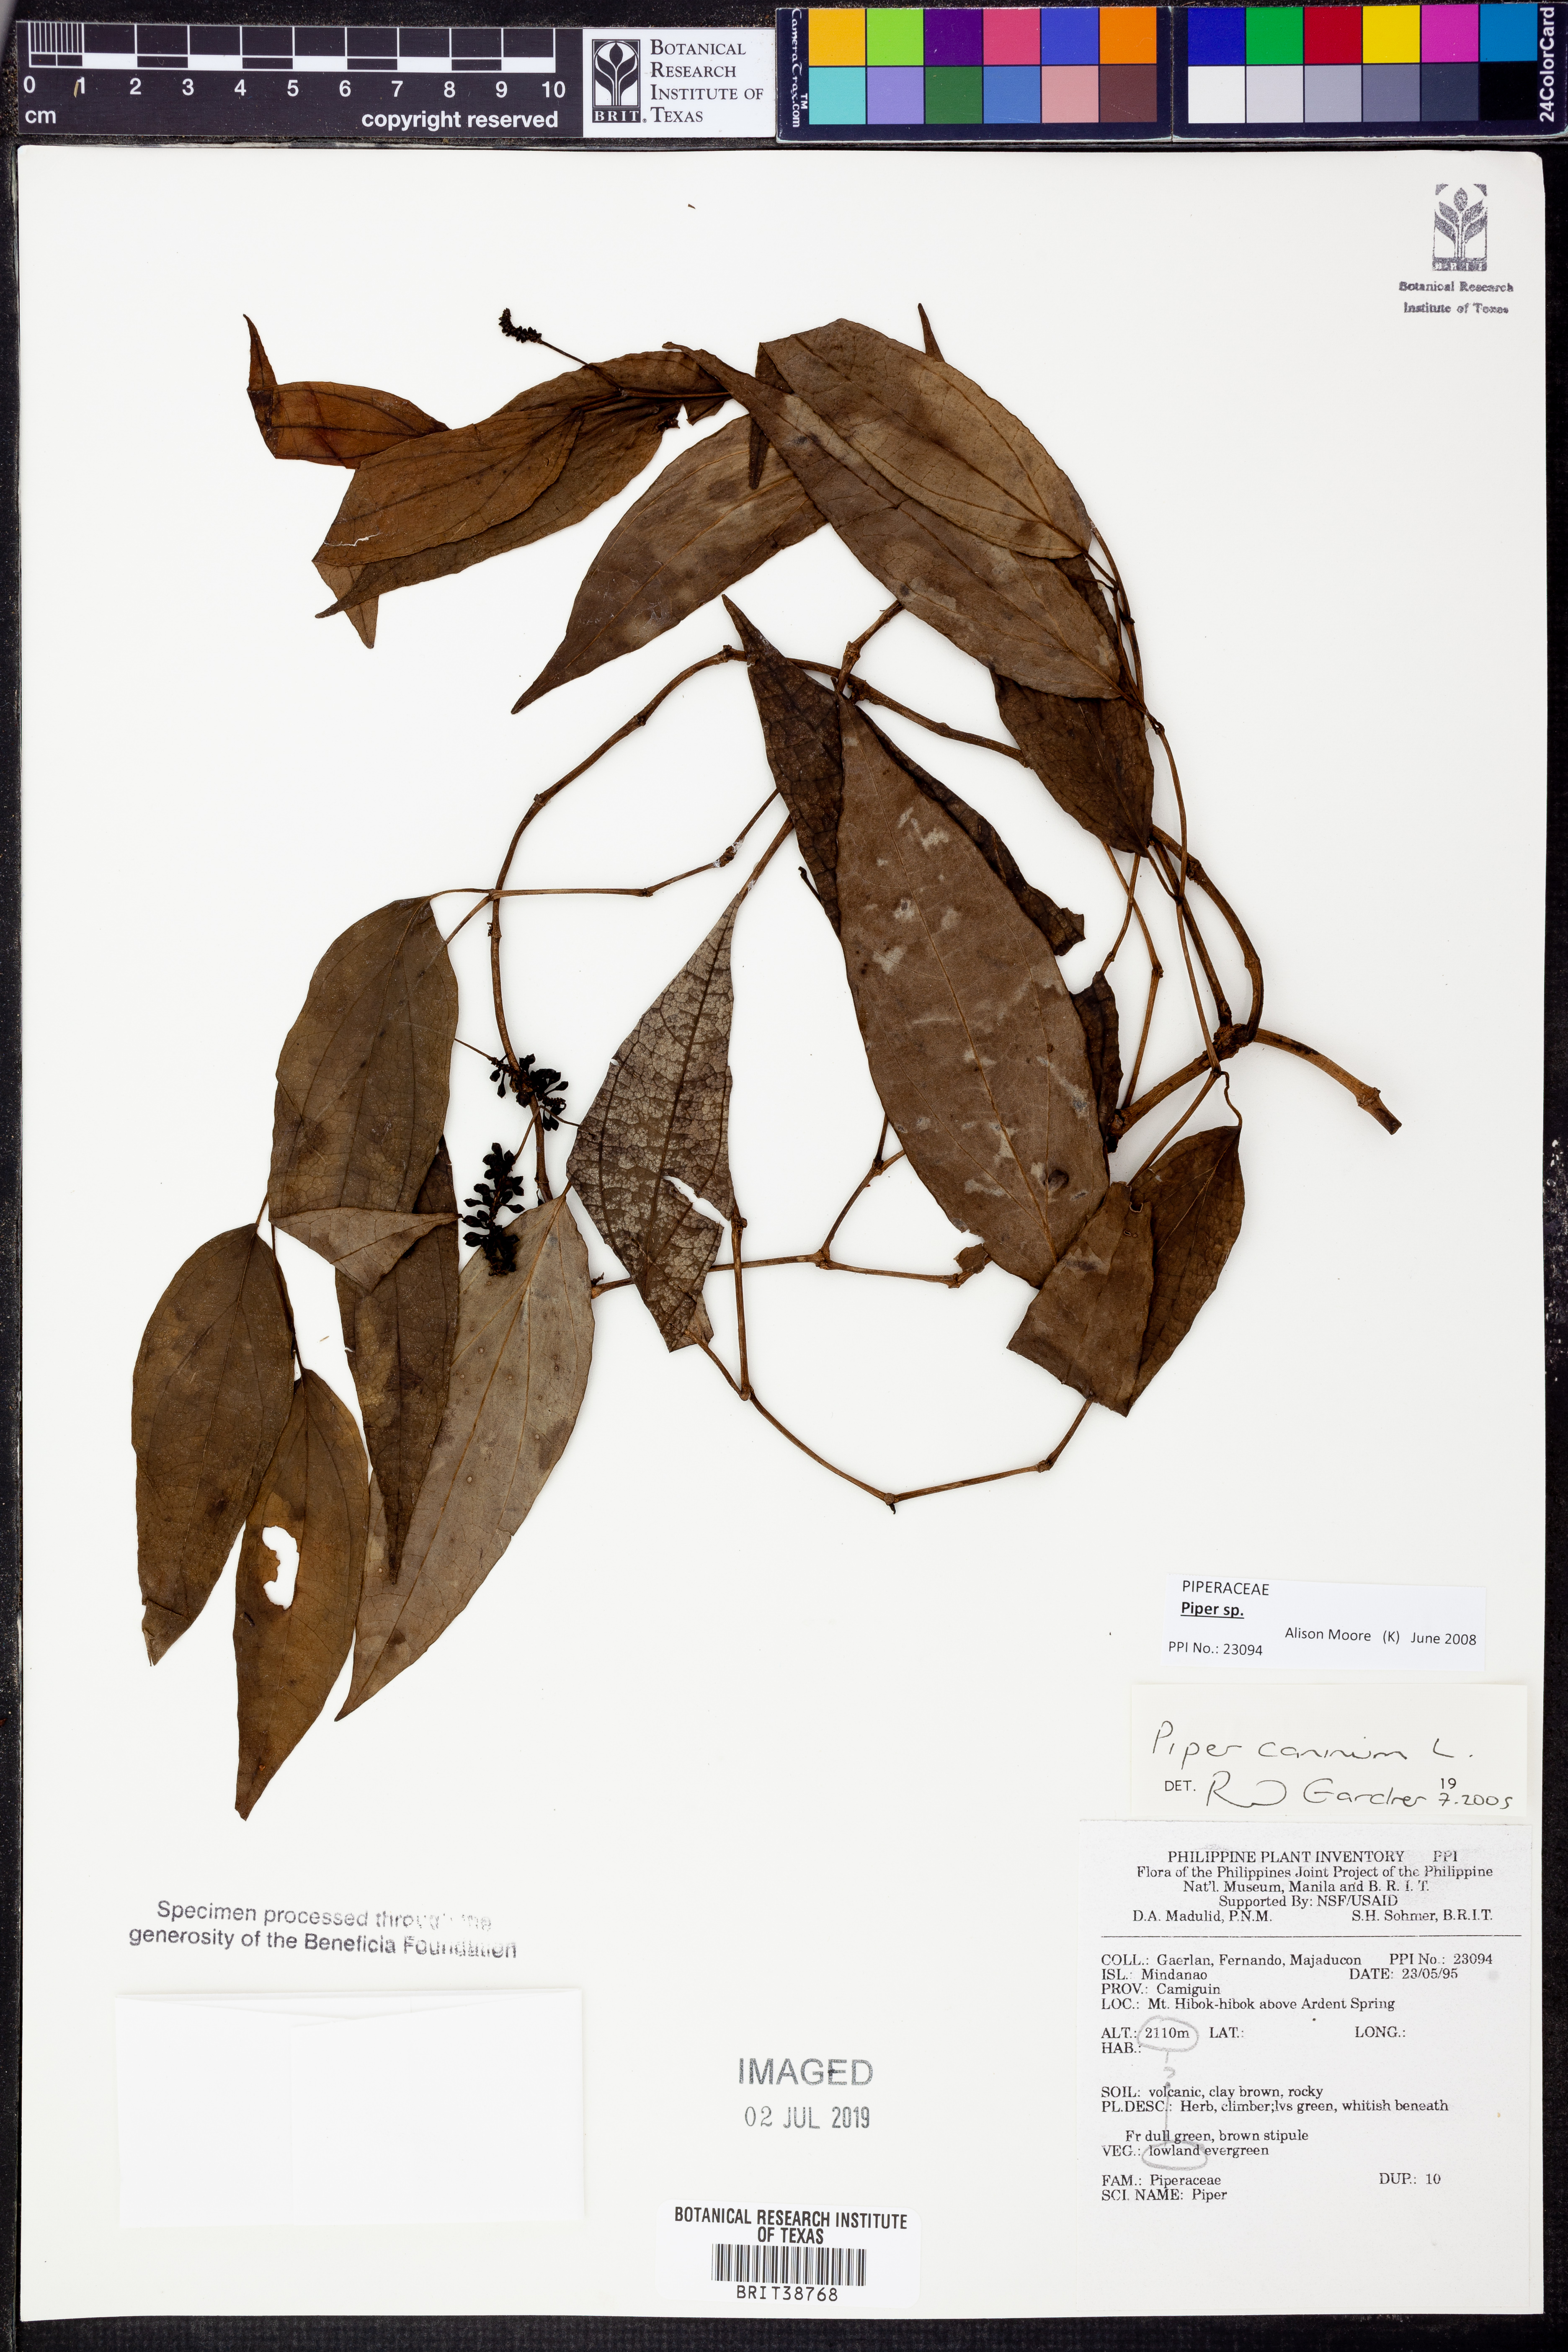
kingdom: Plantae
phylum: Tracheophyta
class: Magnoliopsida
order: Piperales
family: Piperaceae
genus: Piper
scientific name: Piper
